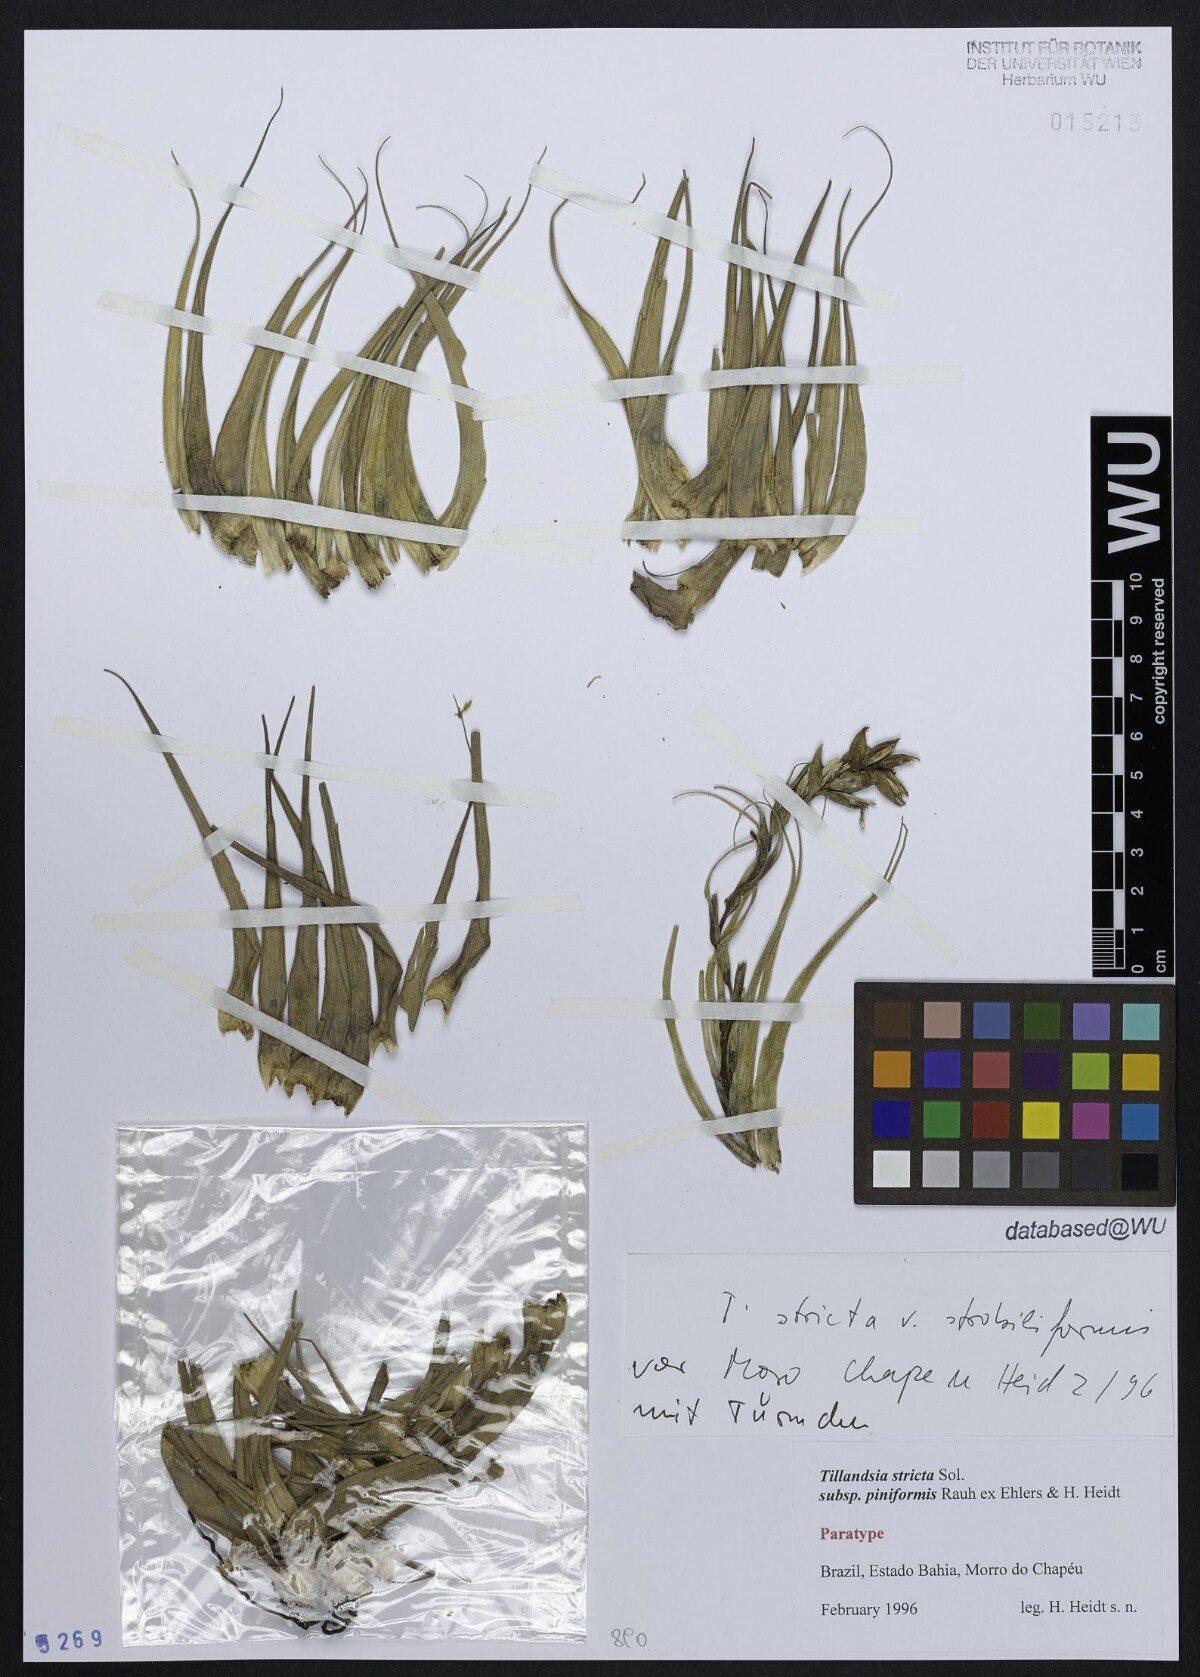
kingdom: Plantae
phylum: Tracheophyta
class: Liliopsida
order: Poales
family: Bromeliaceae
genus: Tillandsia
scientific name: Tillandsia stricta
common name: Airplant
